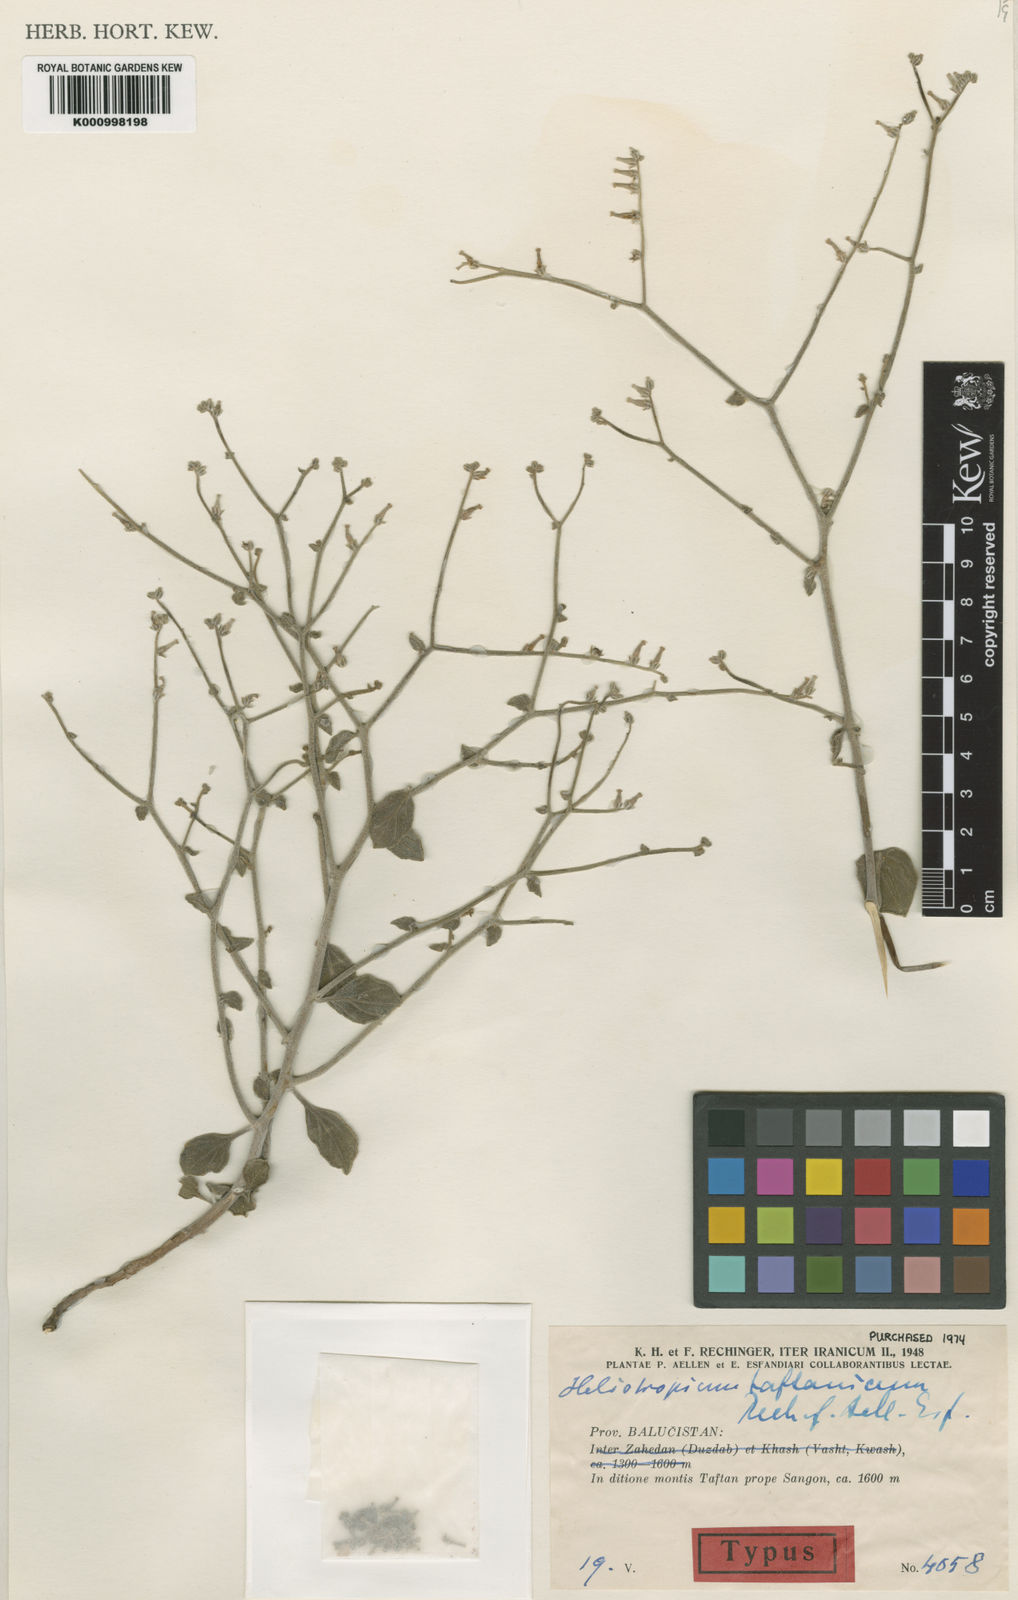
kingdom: Plantae
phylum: Tracheophyta
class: Magnoliopsida
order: Boraginales
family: Heliotropiaceae
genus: Heliotropium
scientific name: Heliotropium dasycarpum
